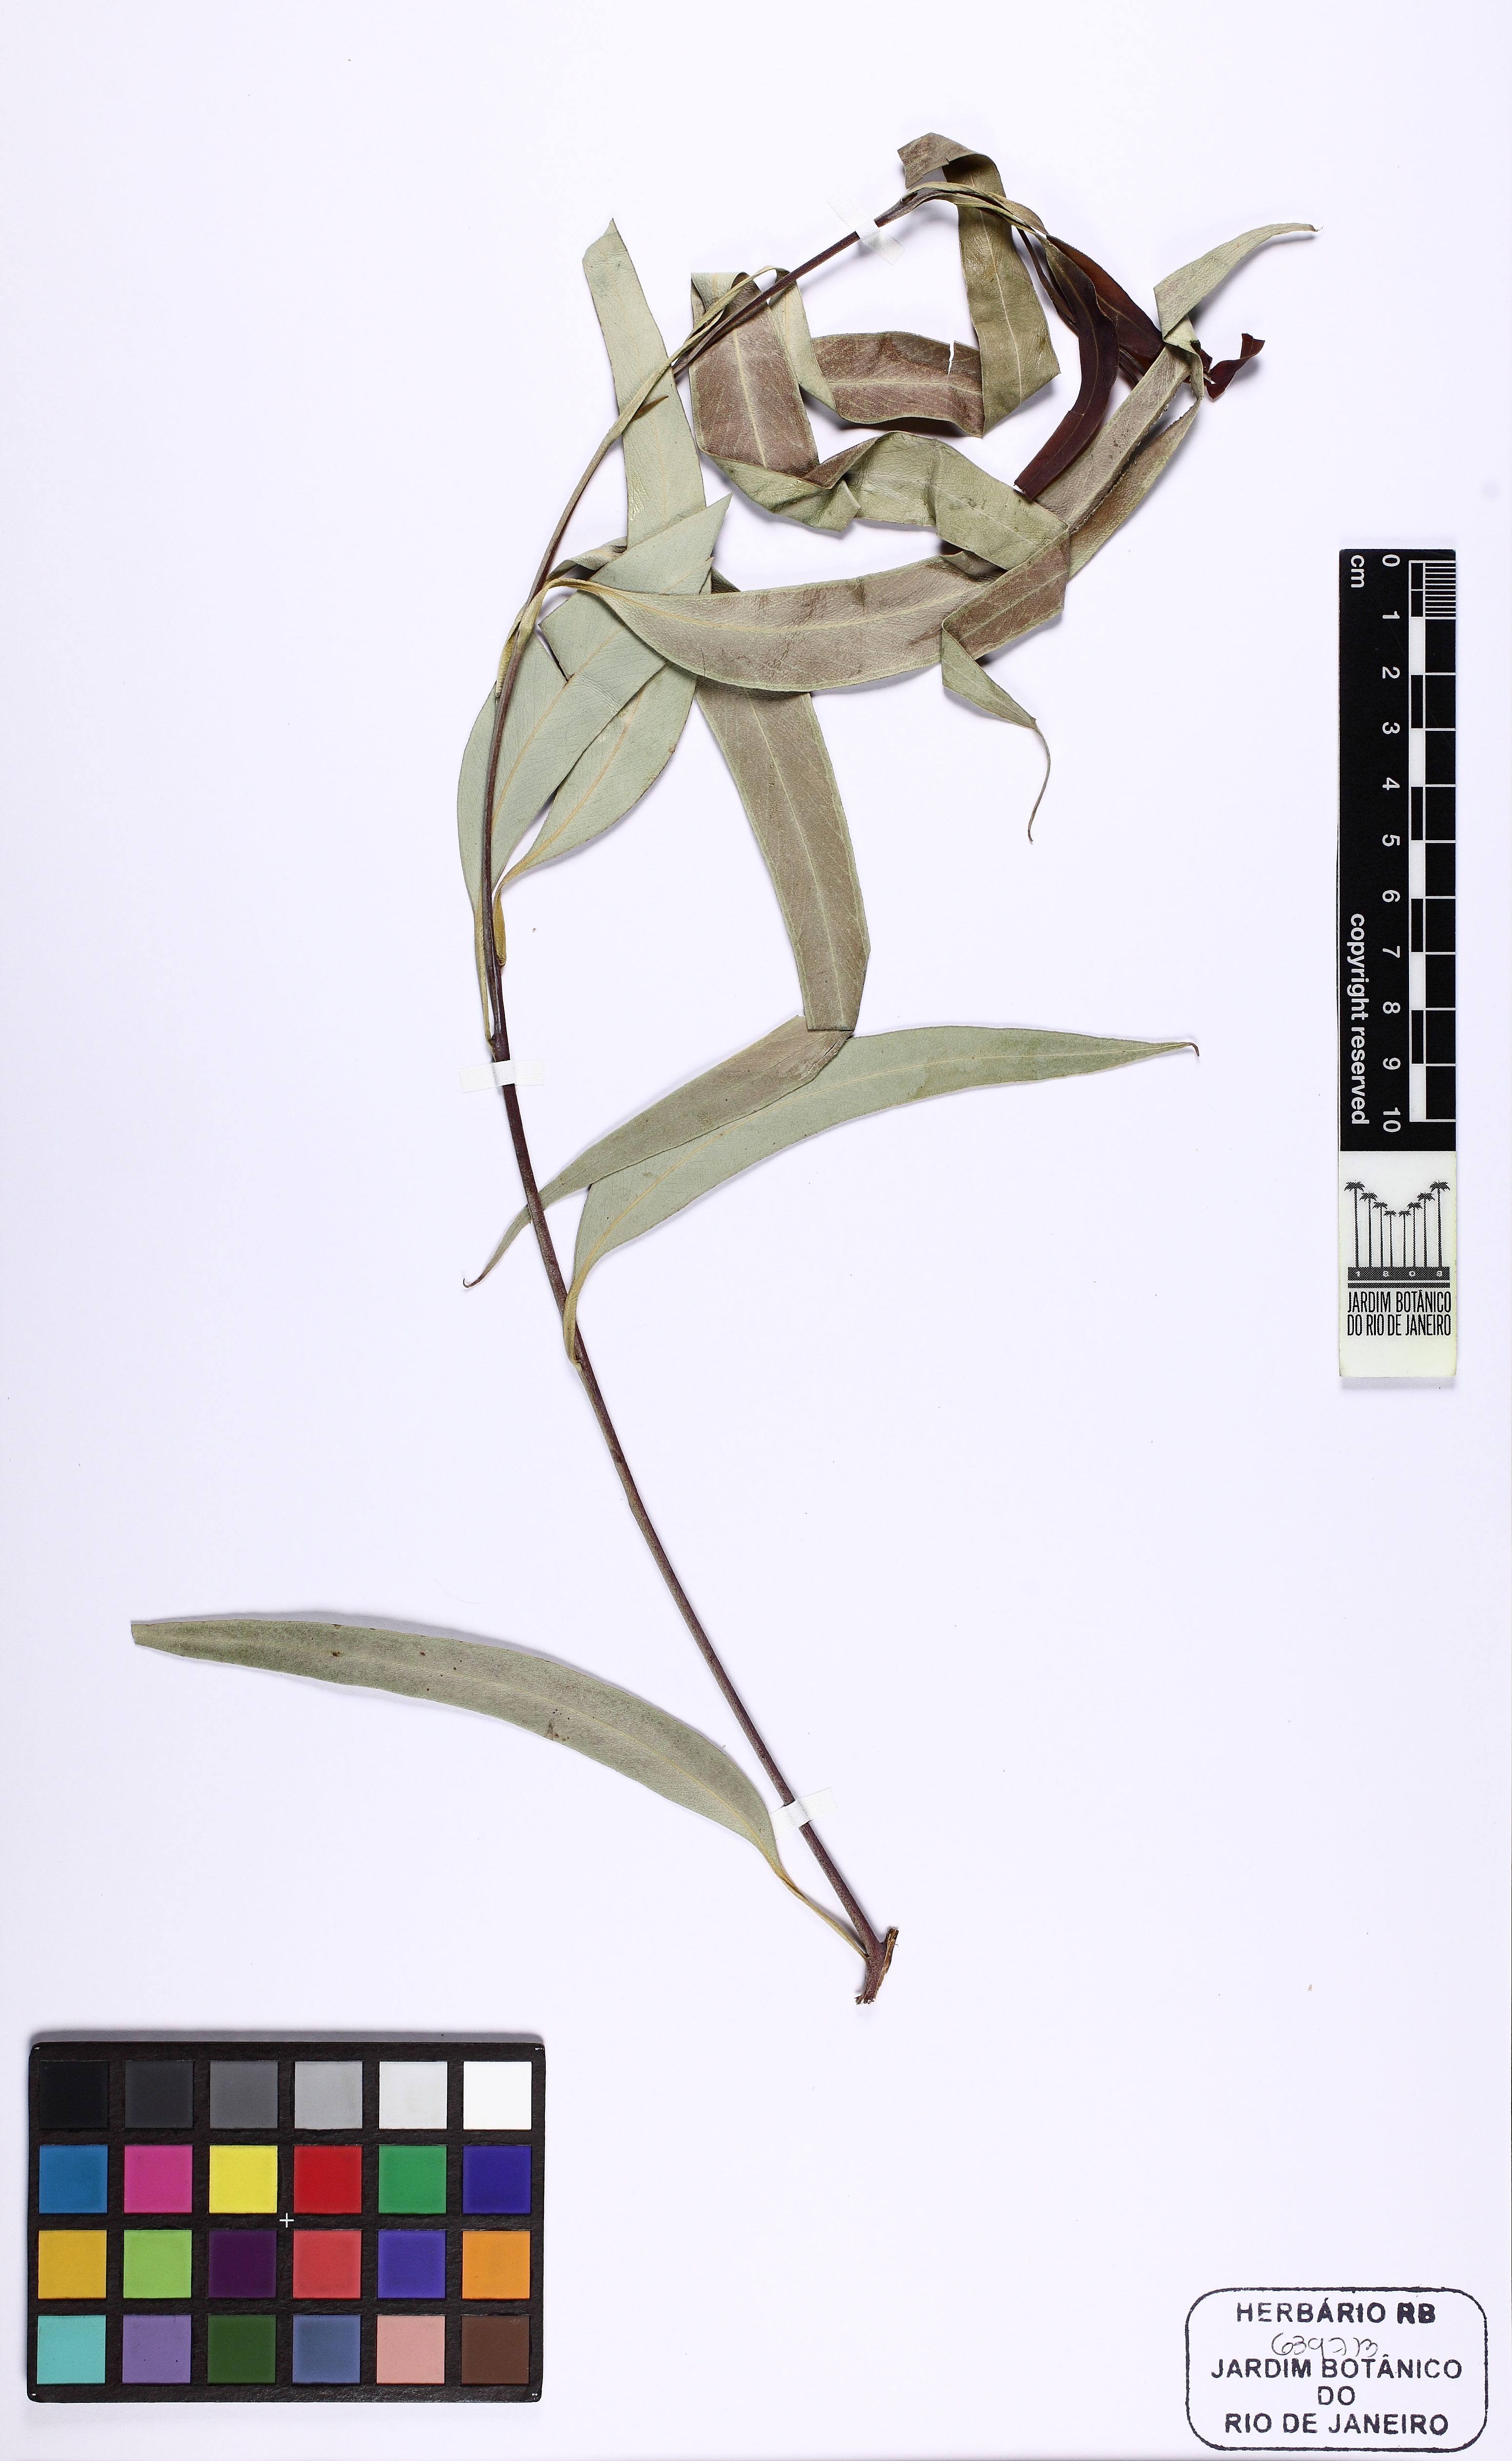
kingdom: Plantae
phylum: Tracheophyta
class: Magnoliopsida
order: Myrtales
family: Myrtaceae
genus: Eucalyptus
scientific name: Eucalyptus pyrocarpa
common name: Large-fruited-blackbutt
